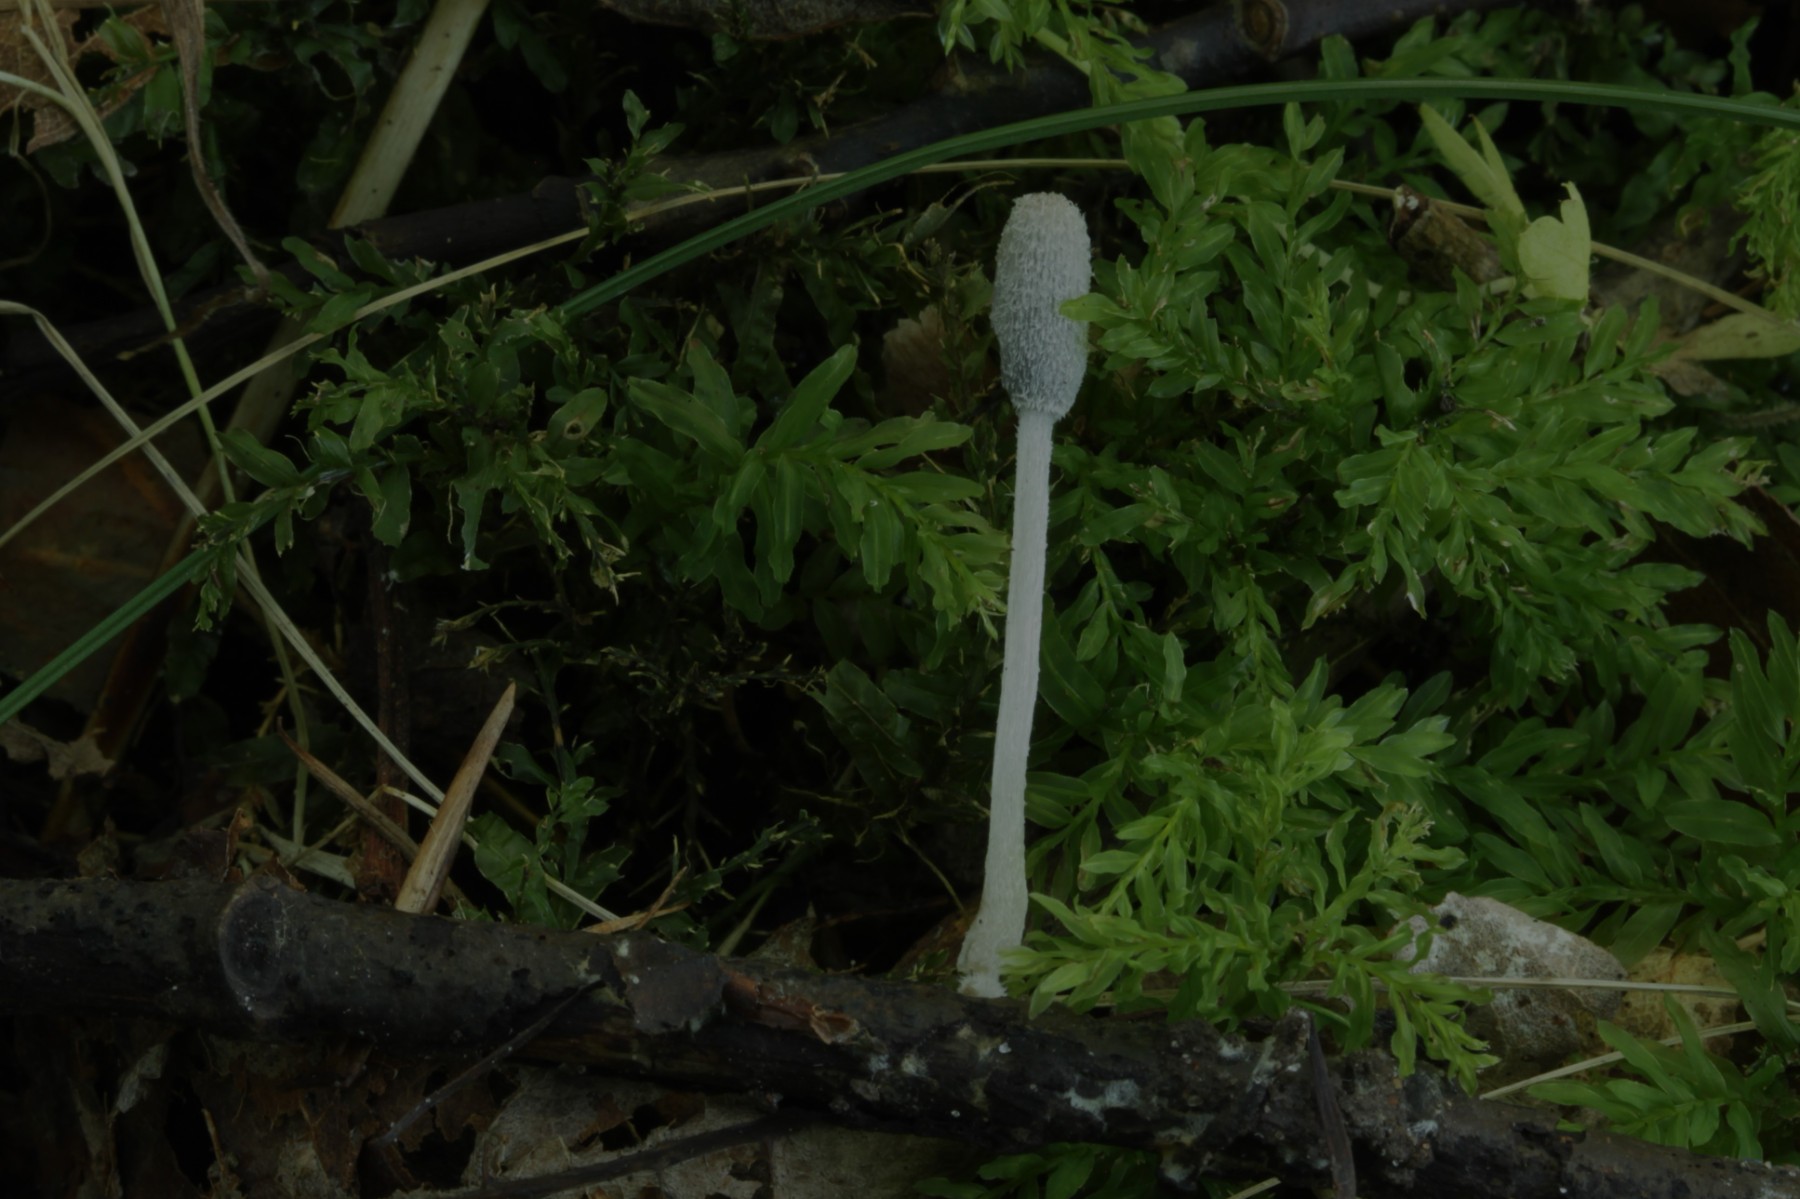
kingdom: Fungi
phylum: Basidiomycota
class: Agaricomycetes
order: Agaricales
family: Psathyrellaceae
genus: Coprinopsis
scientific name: Coprinopsis lagopus
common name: dunstokket blækhat
